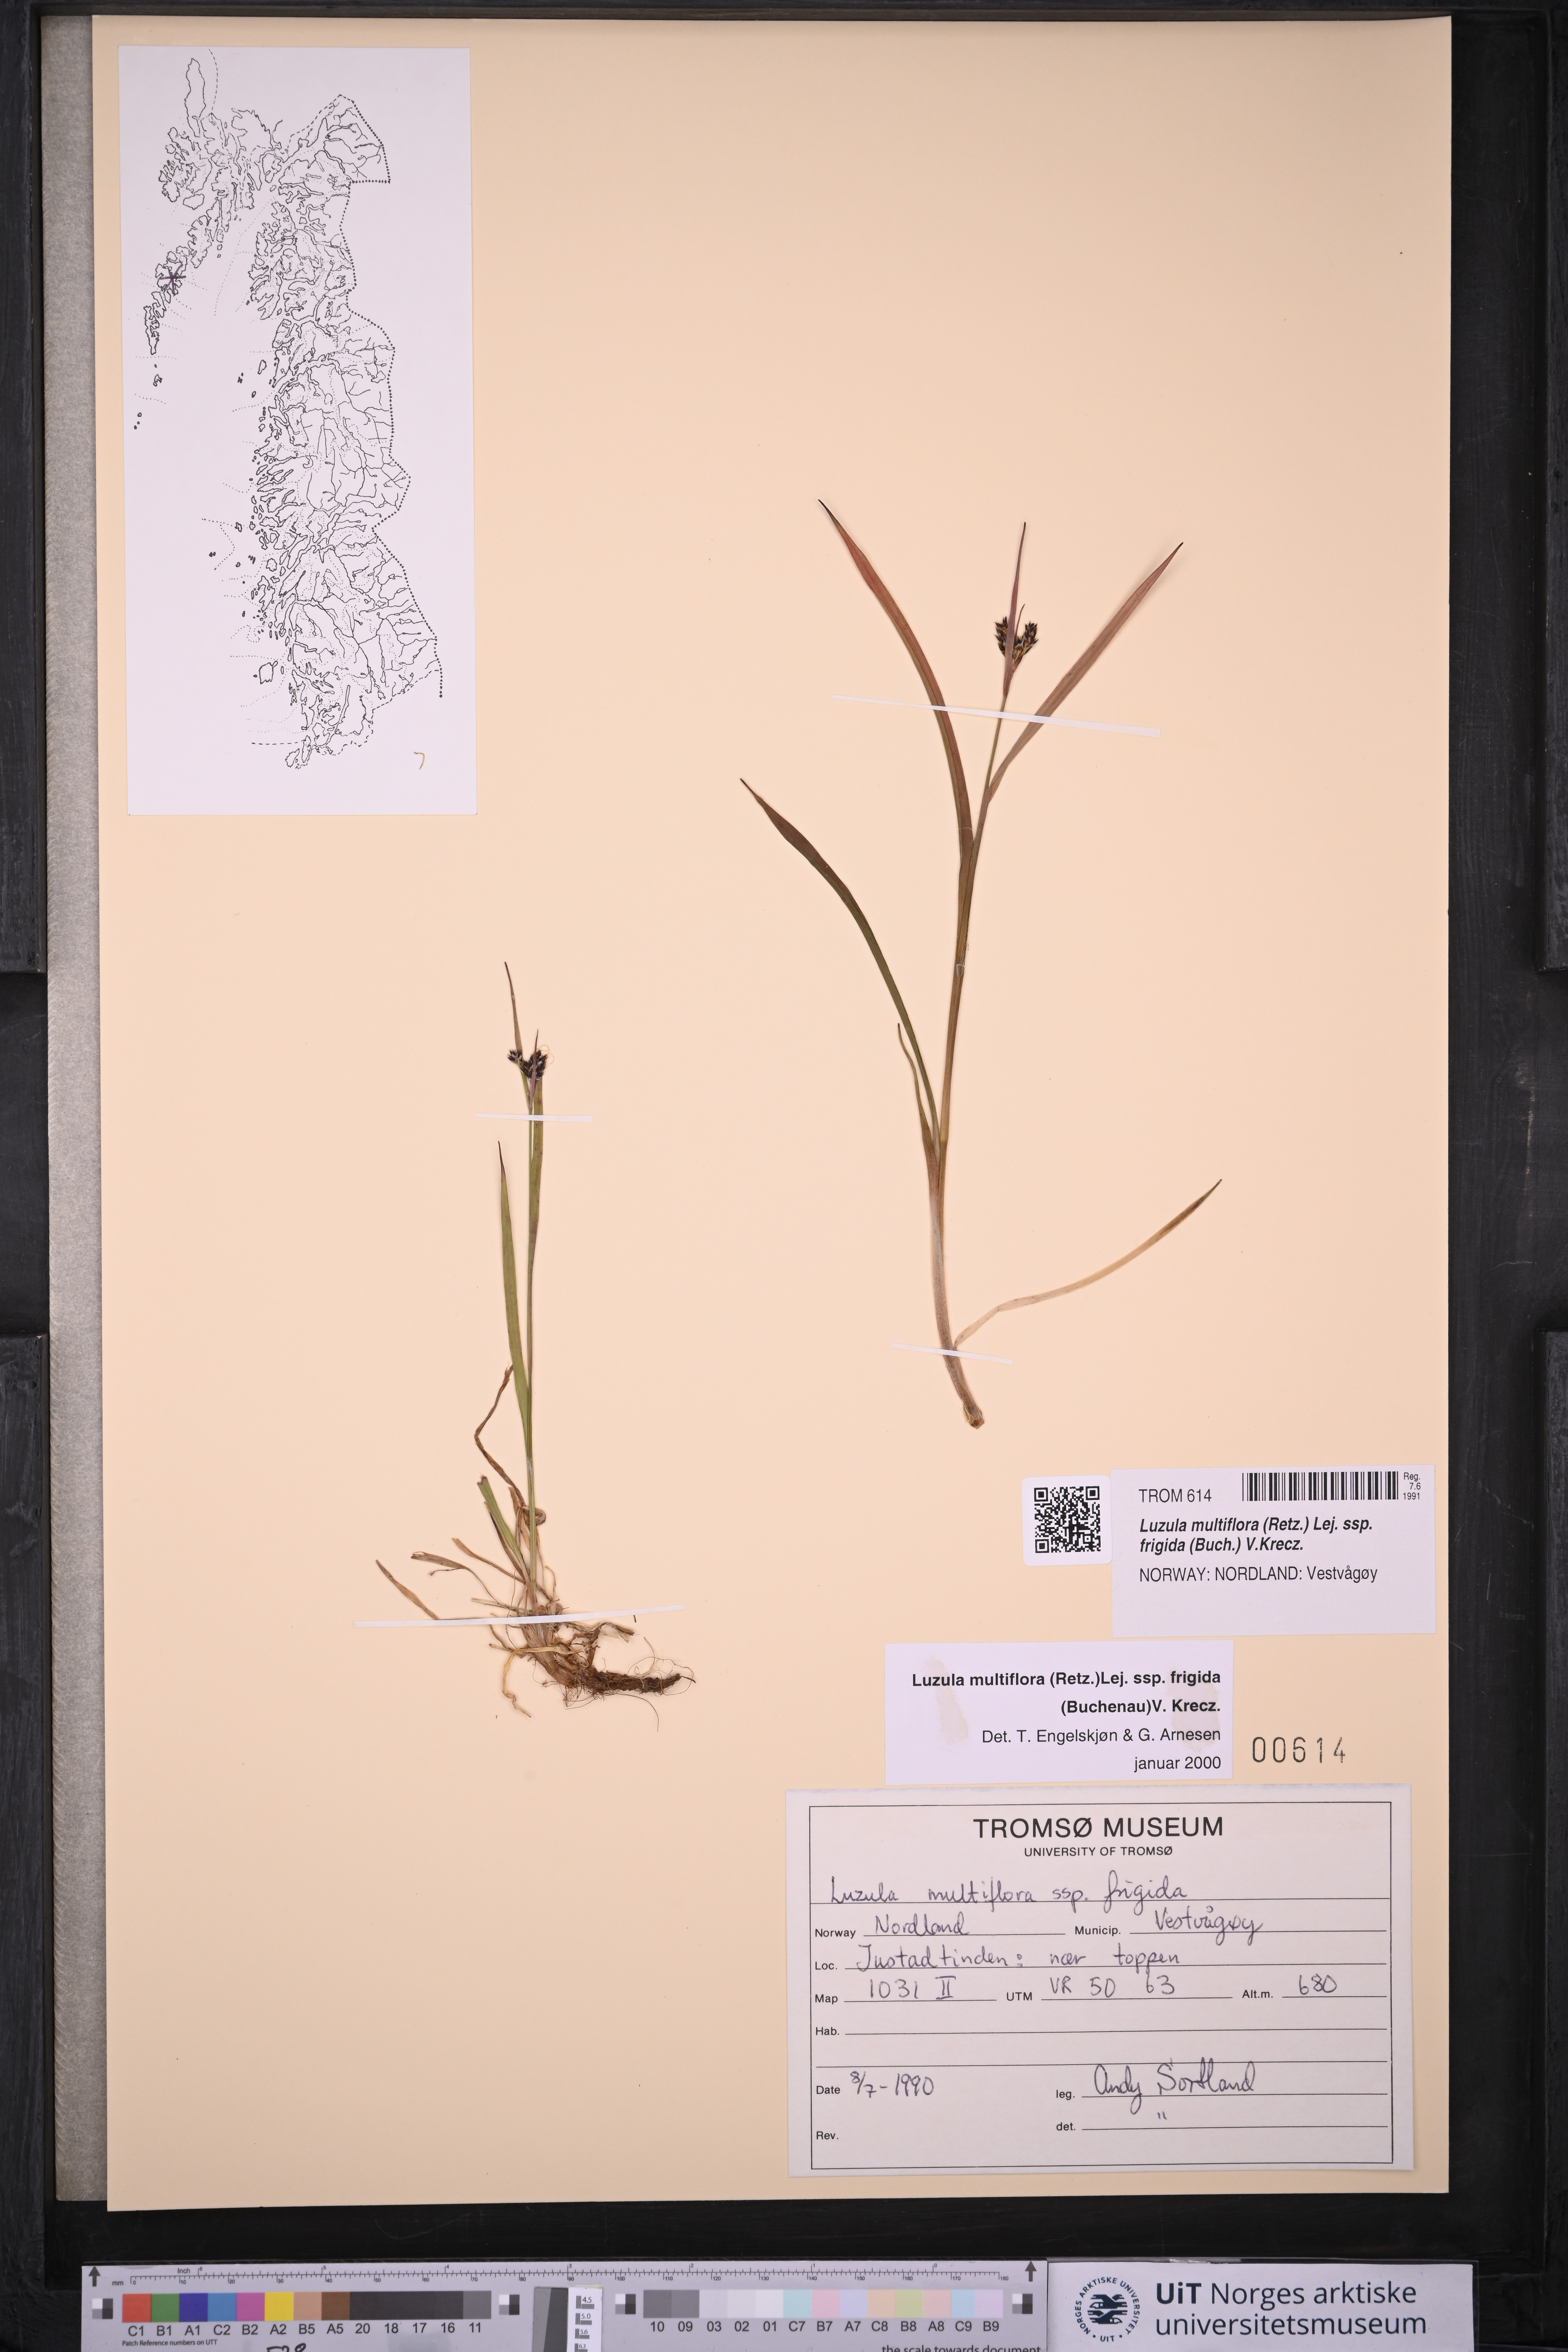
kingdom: Plantae
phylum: Tracheophyta
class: Liliopsida
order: Poales
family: Juncaceae
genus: Luzula
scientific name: Luzula multiflora
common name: Heath wood-rush
